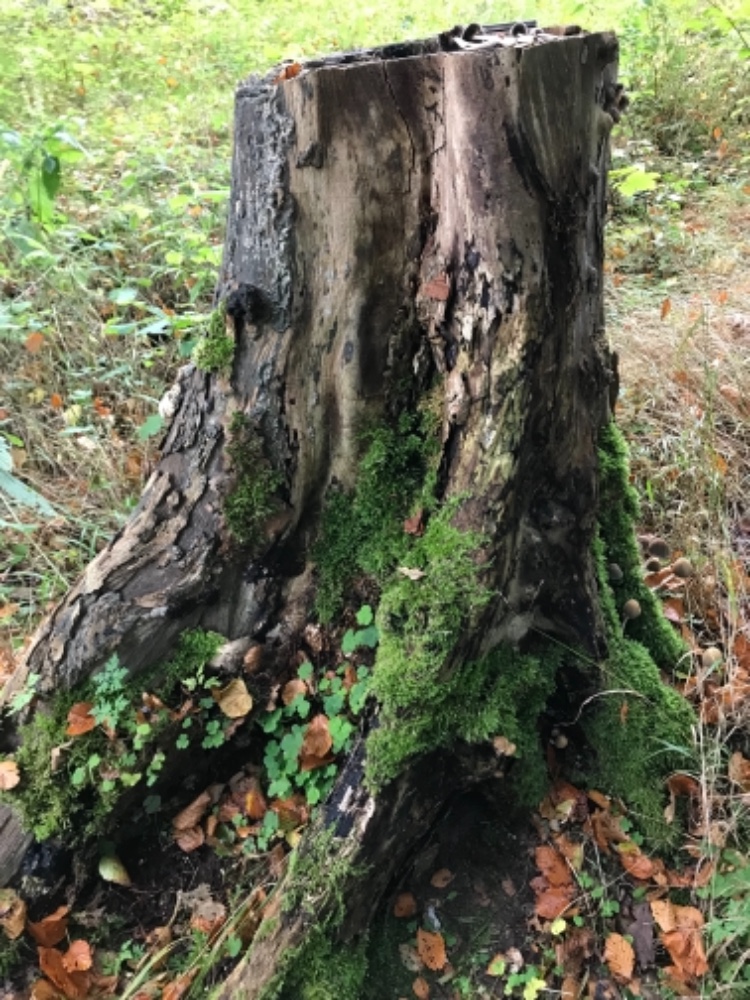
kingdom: Fungi
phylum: Basidiomycota
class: Agaricomycetes
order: Agaricales
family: Psathyrellaceae
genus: Coprinellus
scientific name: Coprinellus micaceus
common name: glimmer-blækhat
